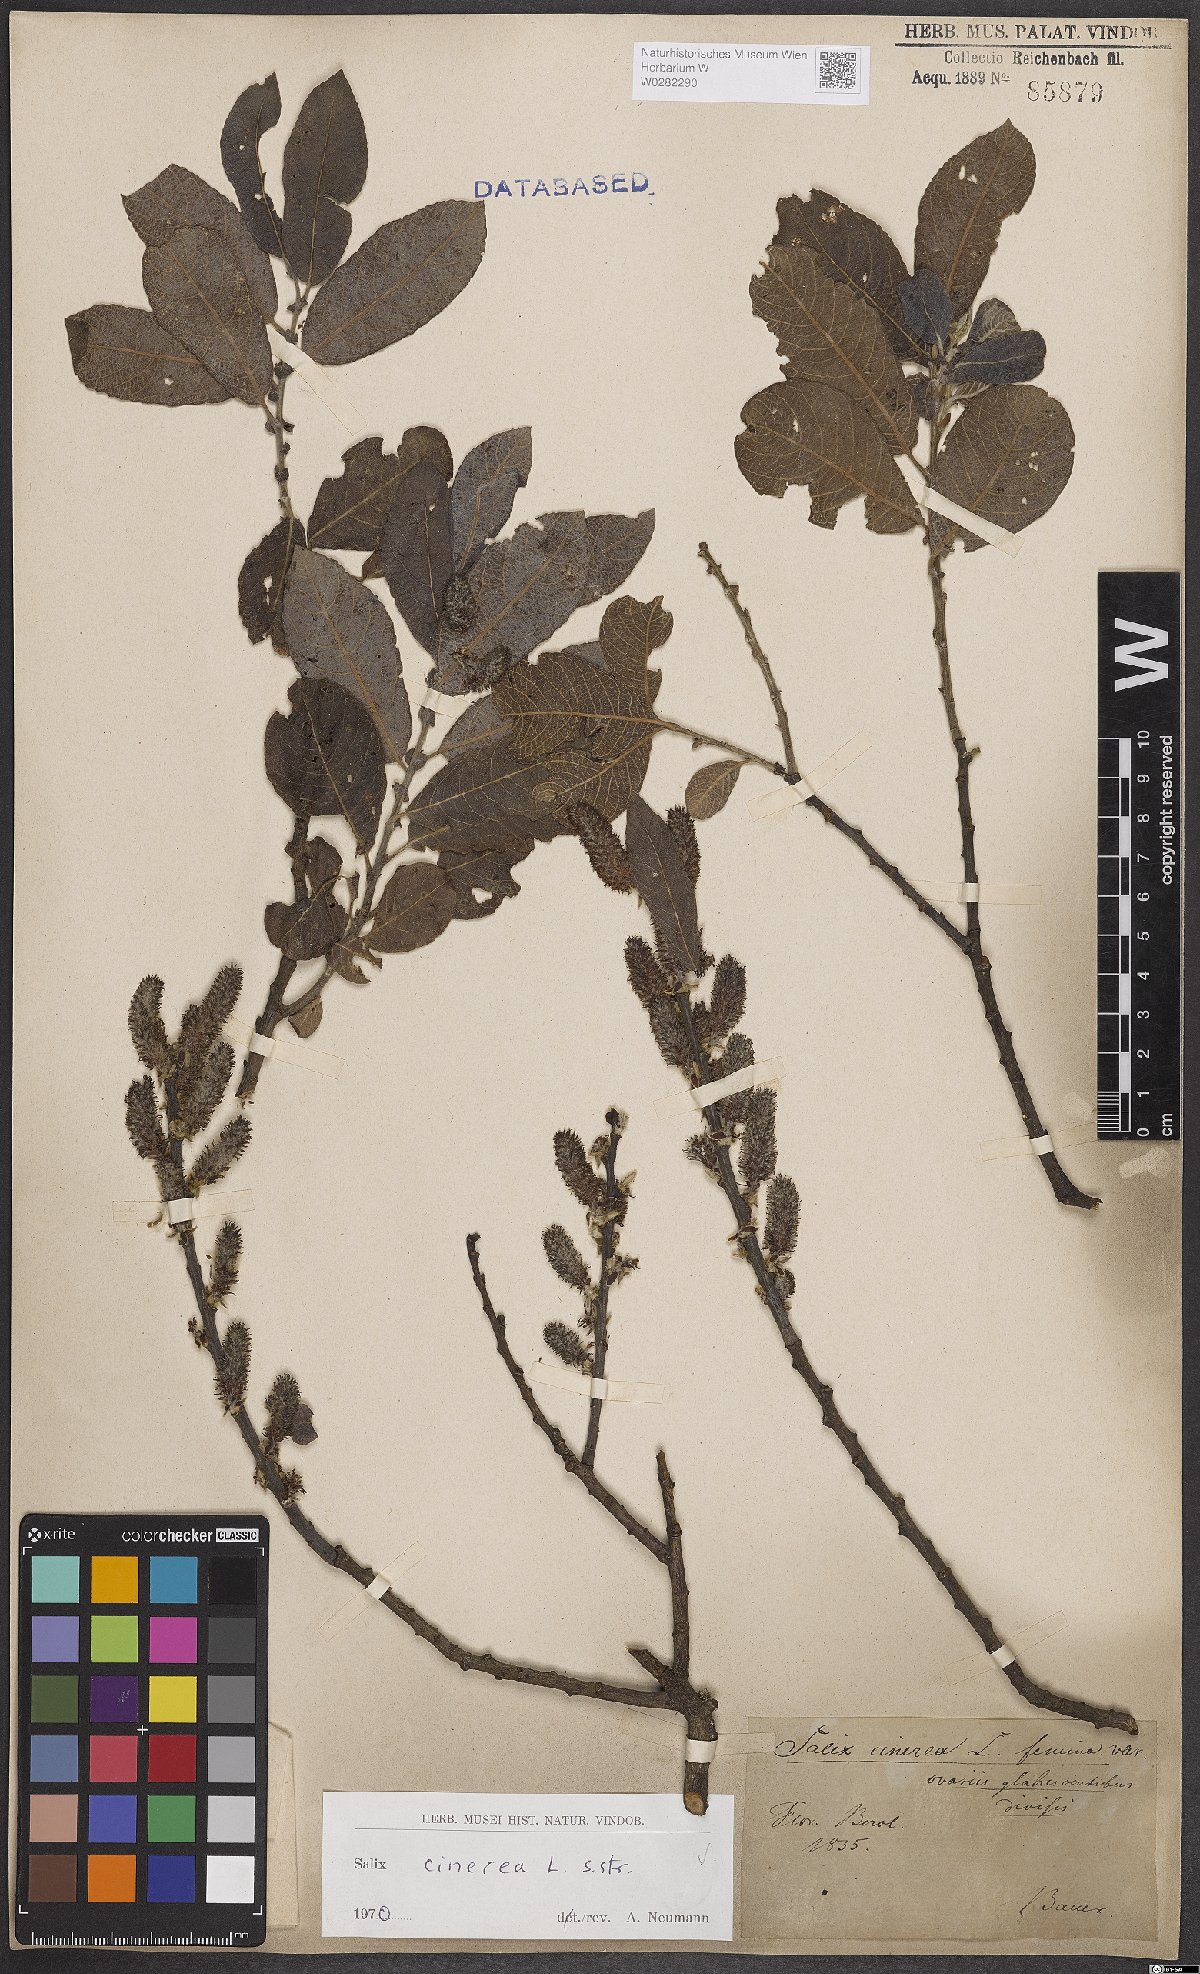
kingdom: Plantae
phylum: Tracheophyta
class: Magnoliopsida
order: Malpighiales
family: Salicaceae
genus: Salix
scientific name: Salix cinerea
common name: Common sallow
